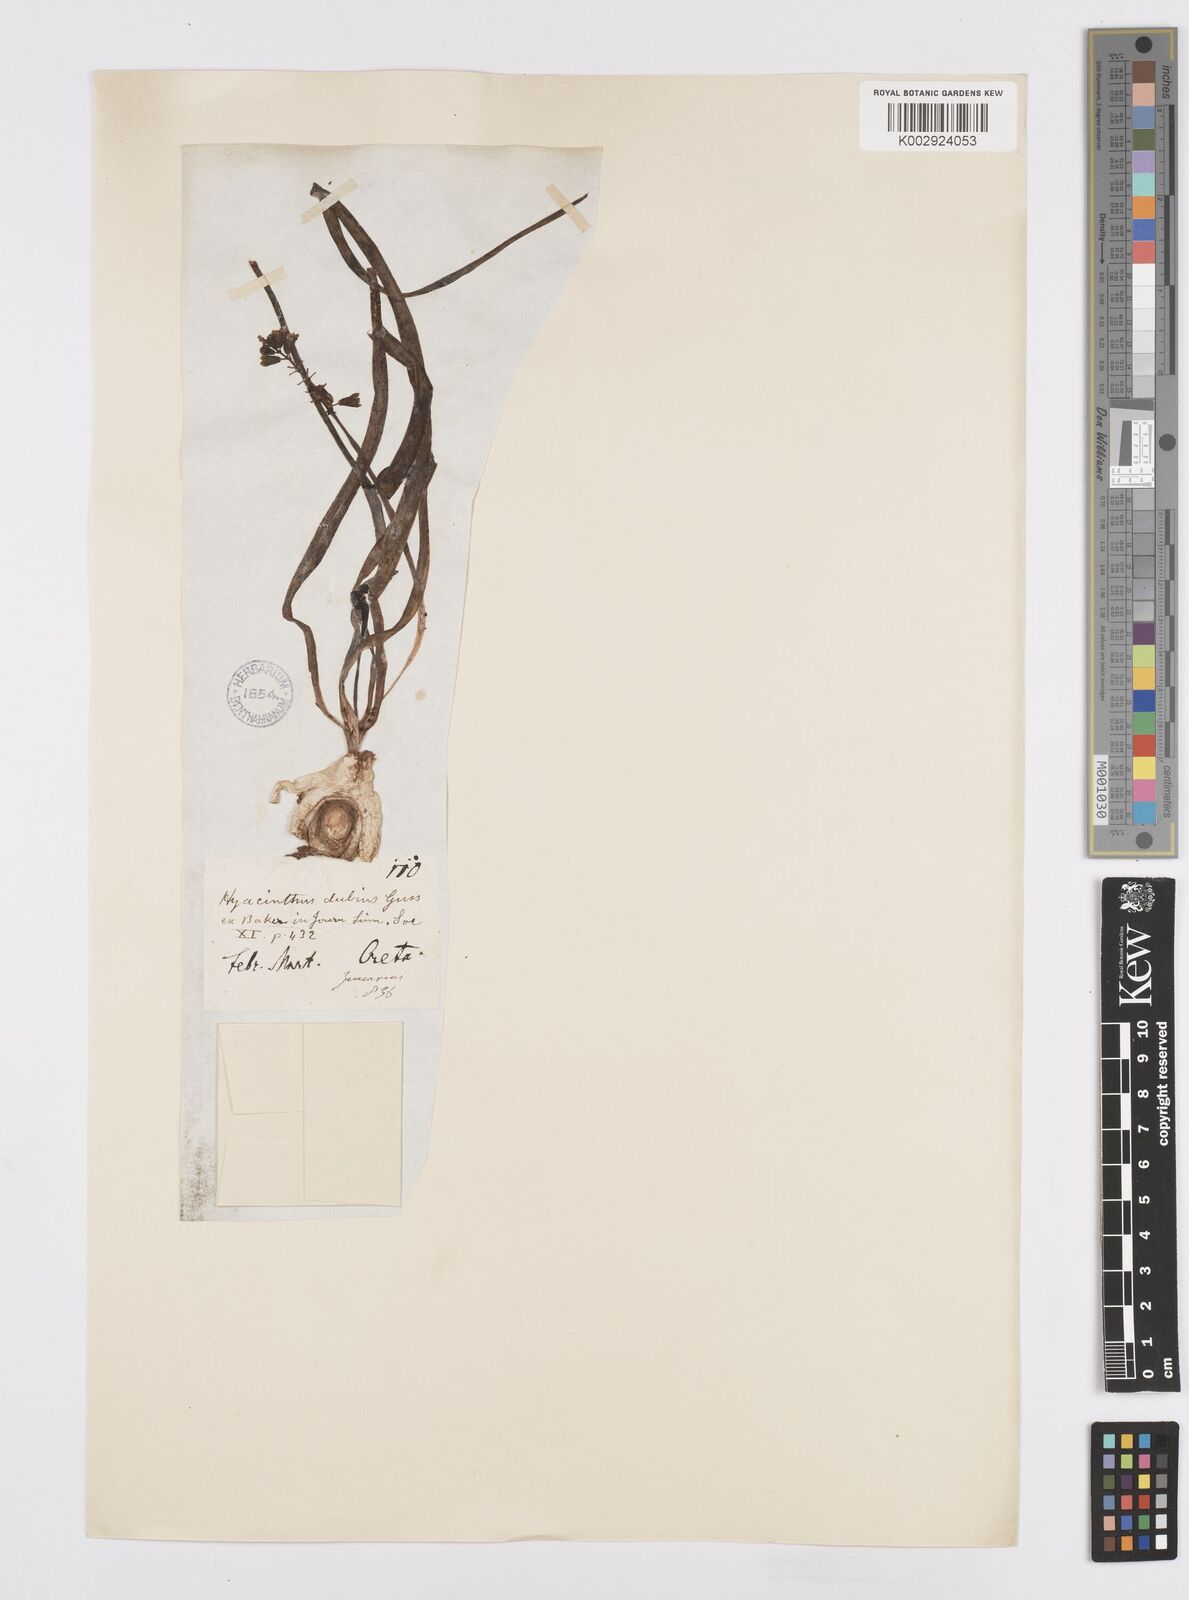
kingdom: Plantae
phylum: Tracheophyta
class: Liliopsida
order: Asparagales
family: Asparagaceae
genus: Bellevalia
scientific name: Bellevalia dubia
